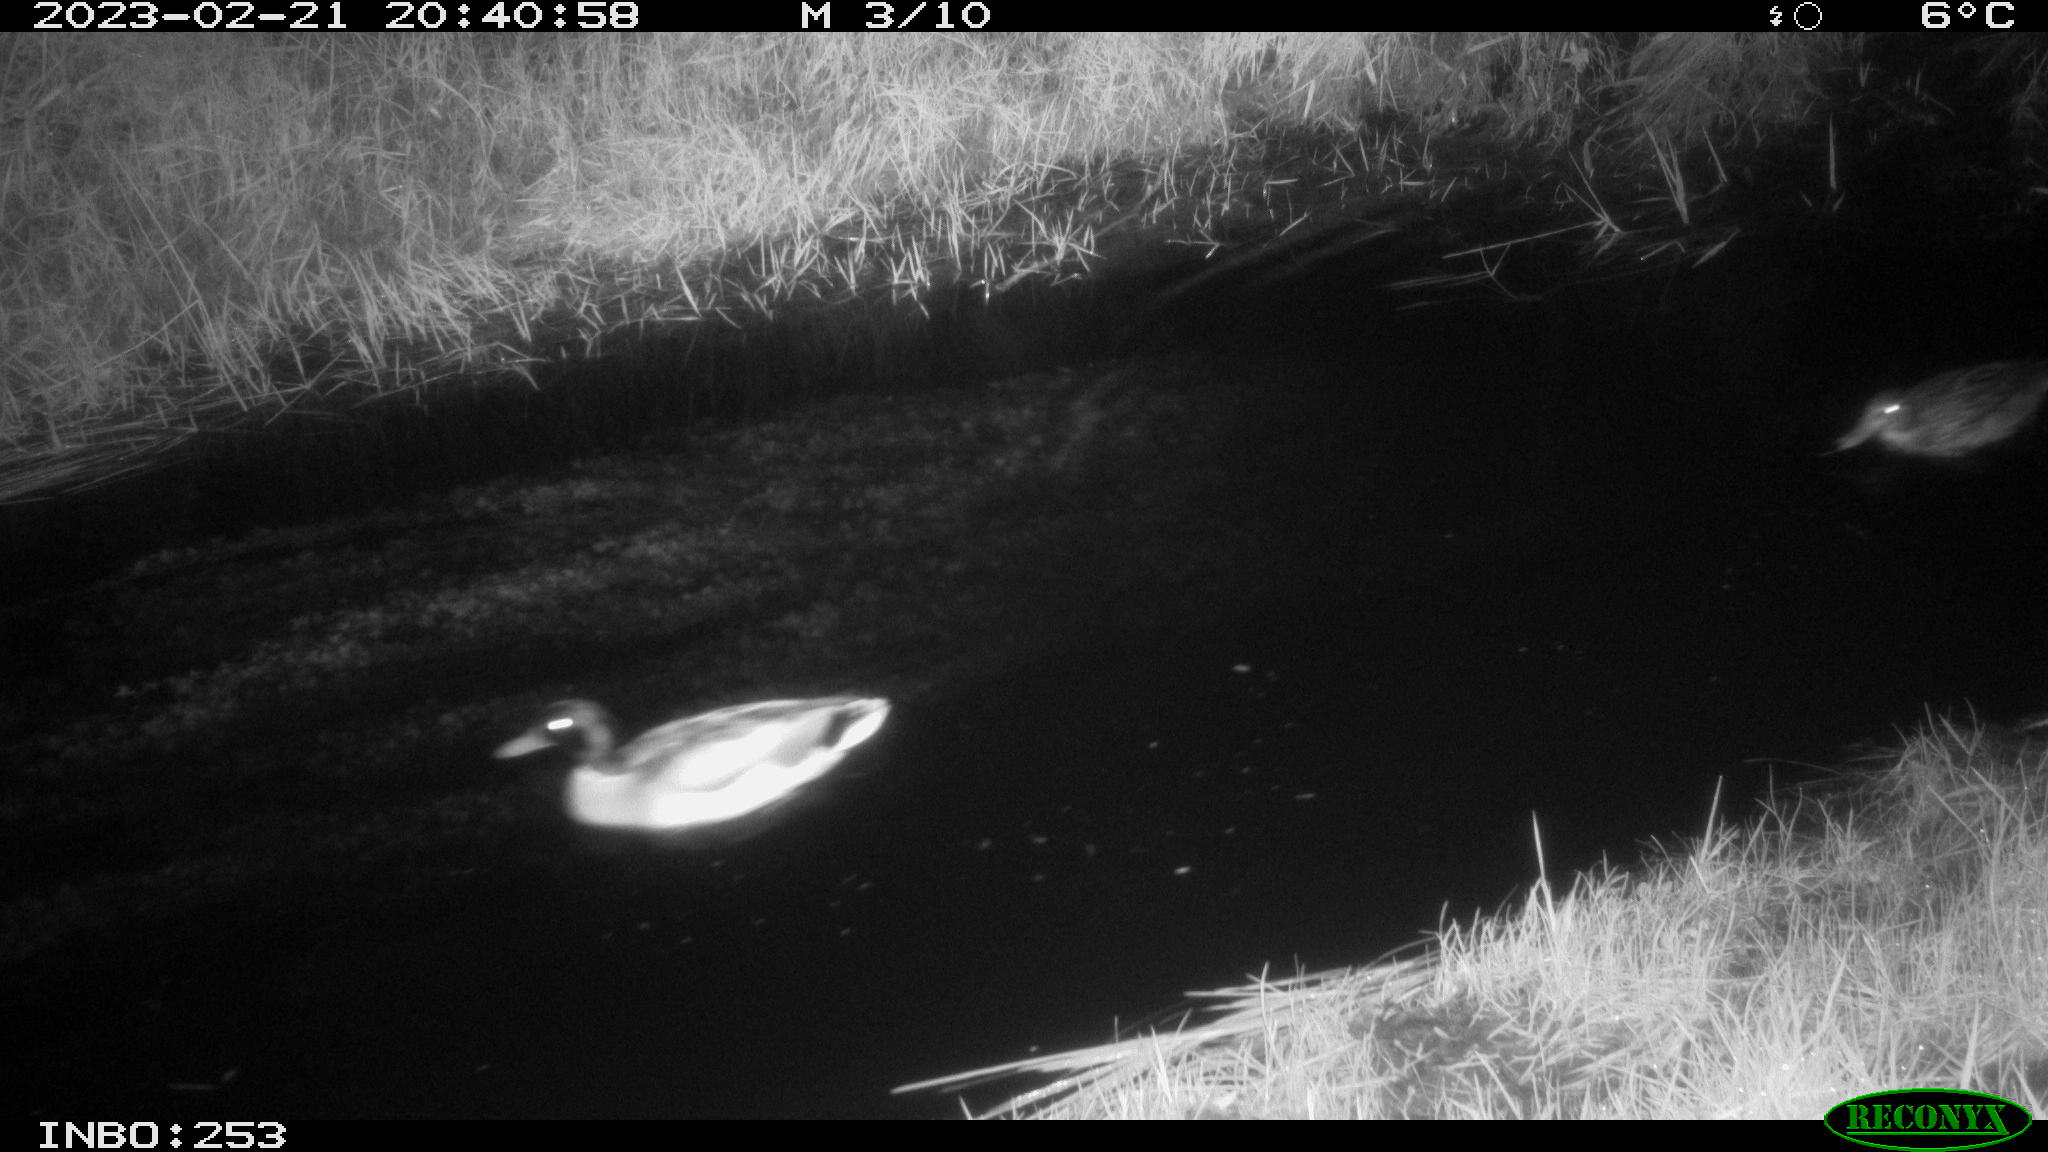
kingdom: Animalia
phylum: Chordata
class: Aves
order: Anseriformes
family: Anatidae
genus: Anas
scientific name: Anas
